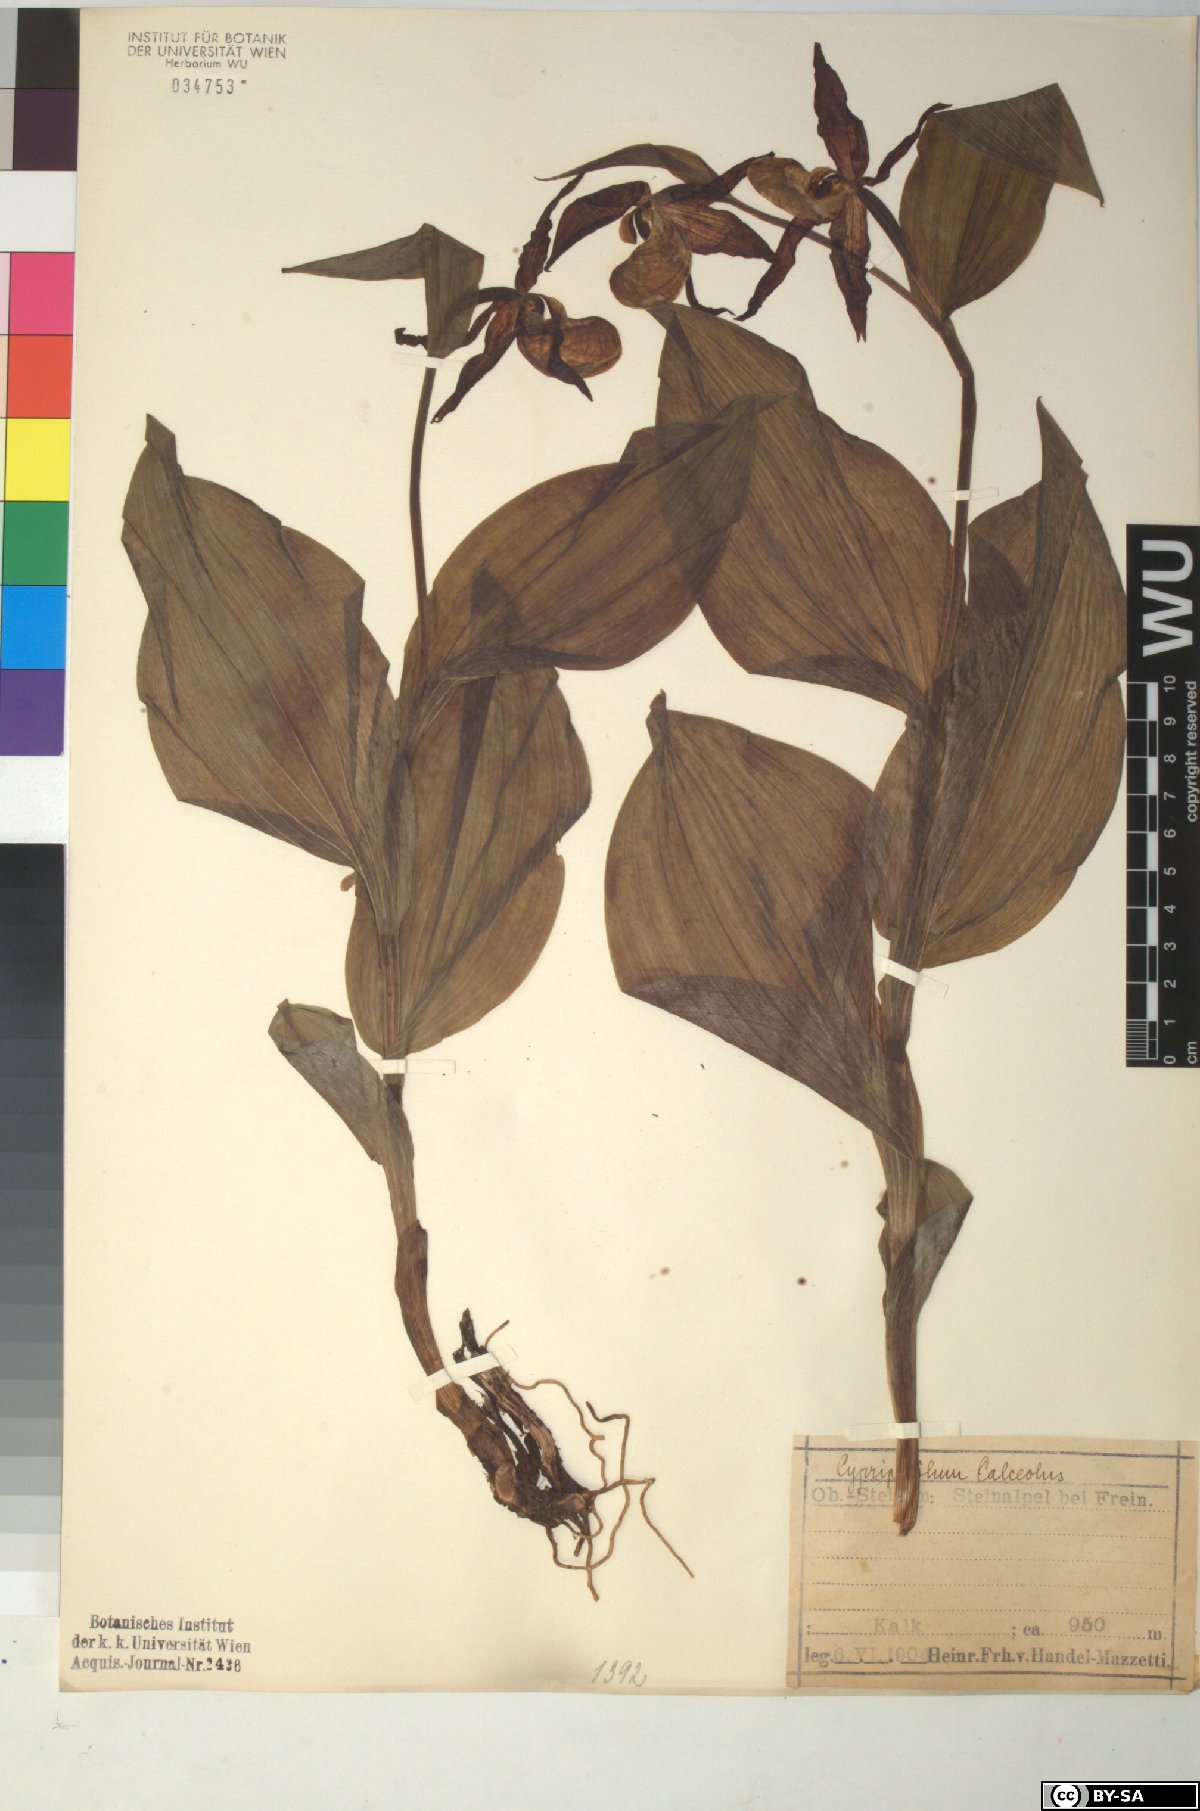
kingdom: Plantae
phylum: Tracheophyta
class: Liliopsida
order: Asparagales
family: Orchidaceae
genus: Cypripedium
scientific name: Cypripedium calceolus
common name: Lady's-slipper
